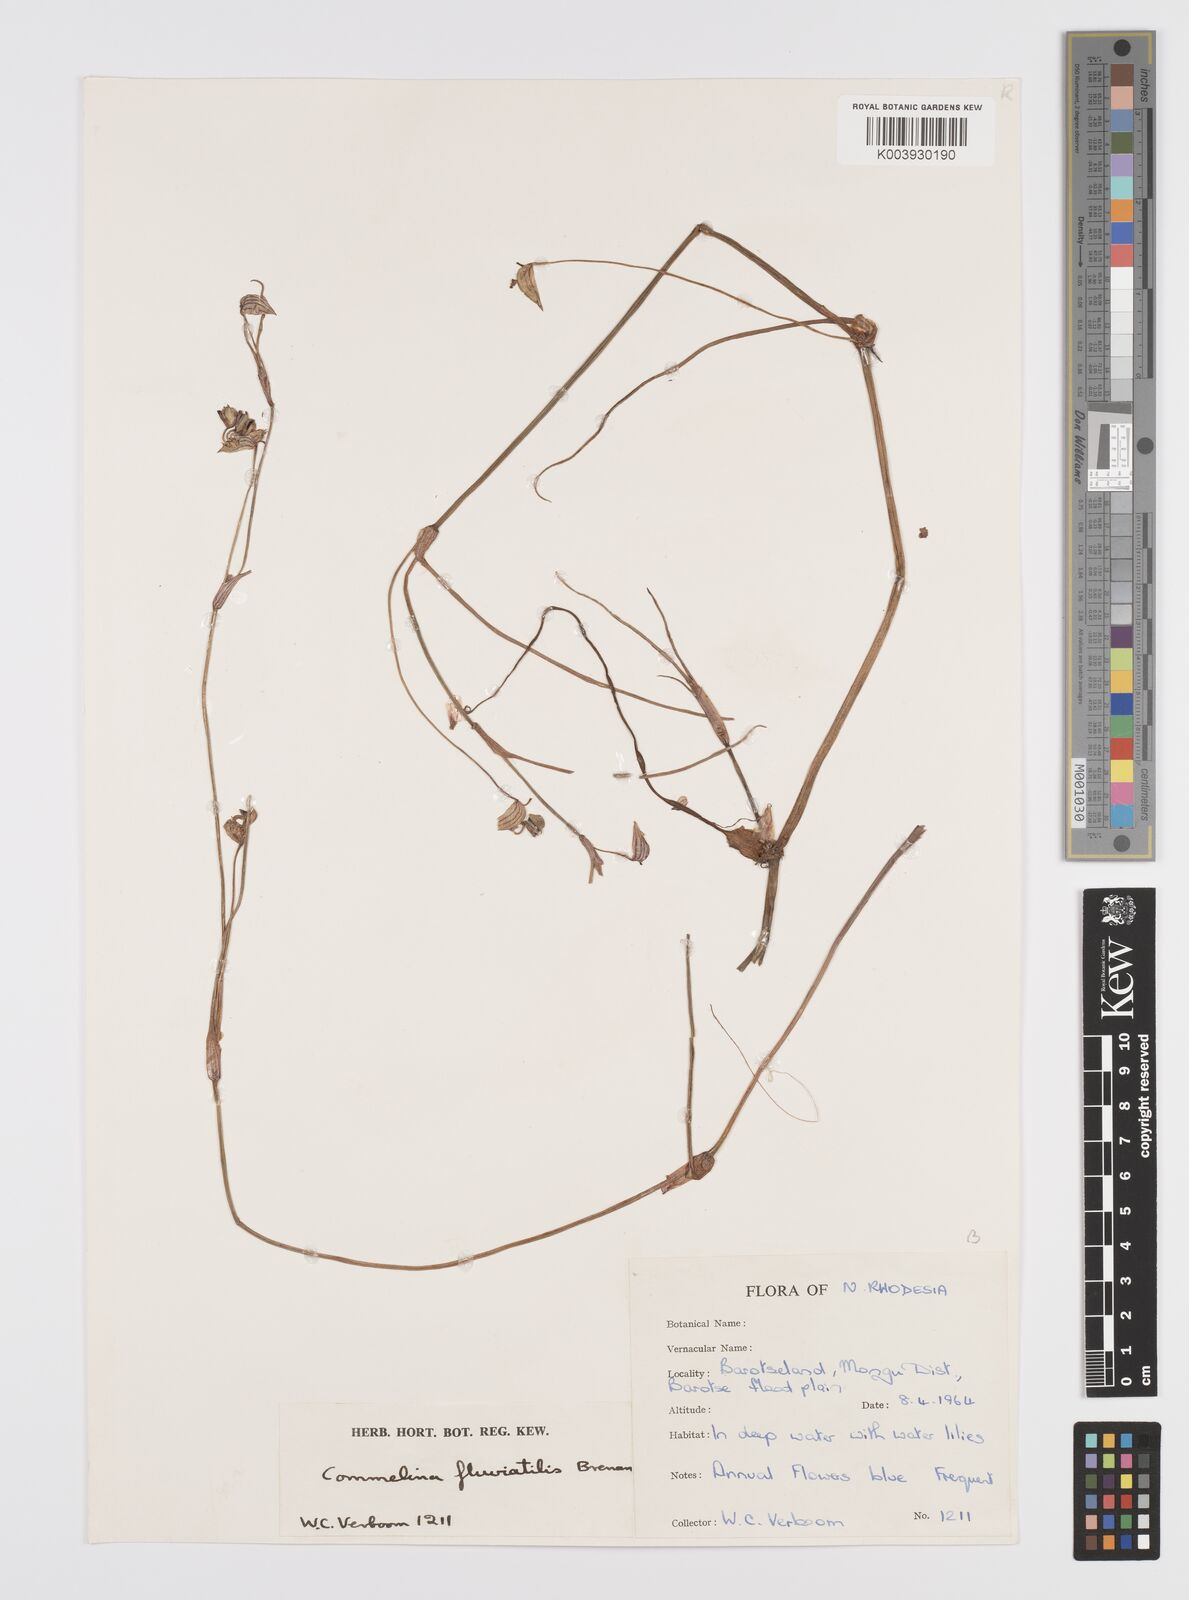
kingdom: Plantae
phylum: Tracheophyta
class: Liliopsida
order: Commelinales
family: Commelinaceae
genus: Commelina
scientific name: Commelina fluviatilis
